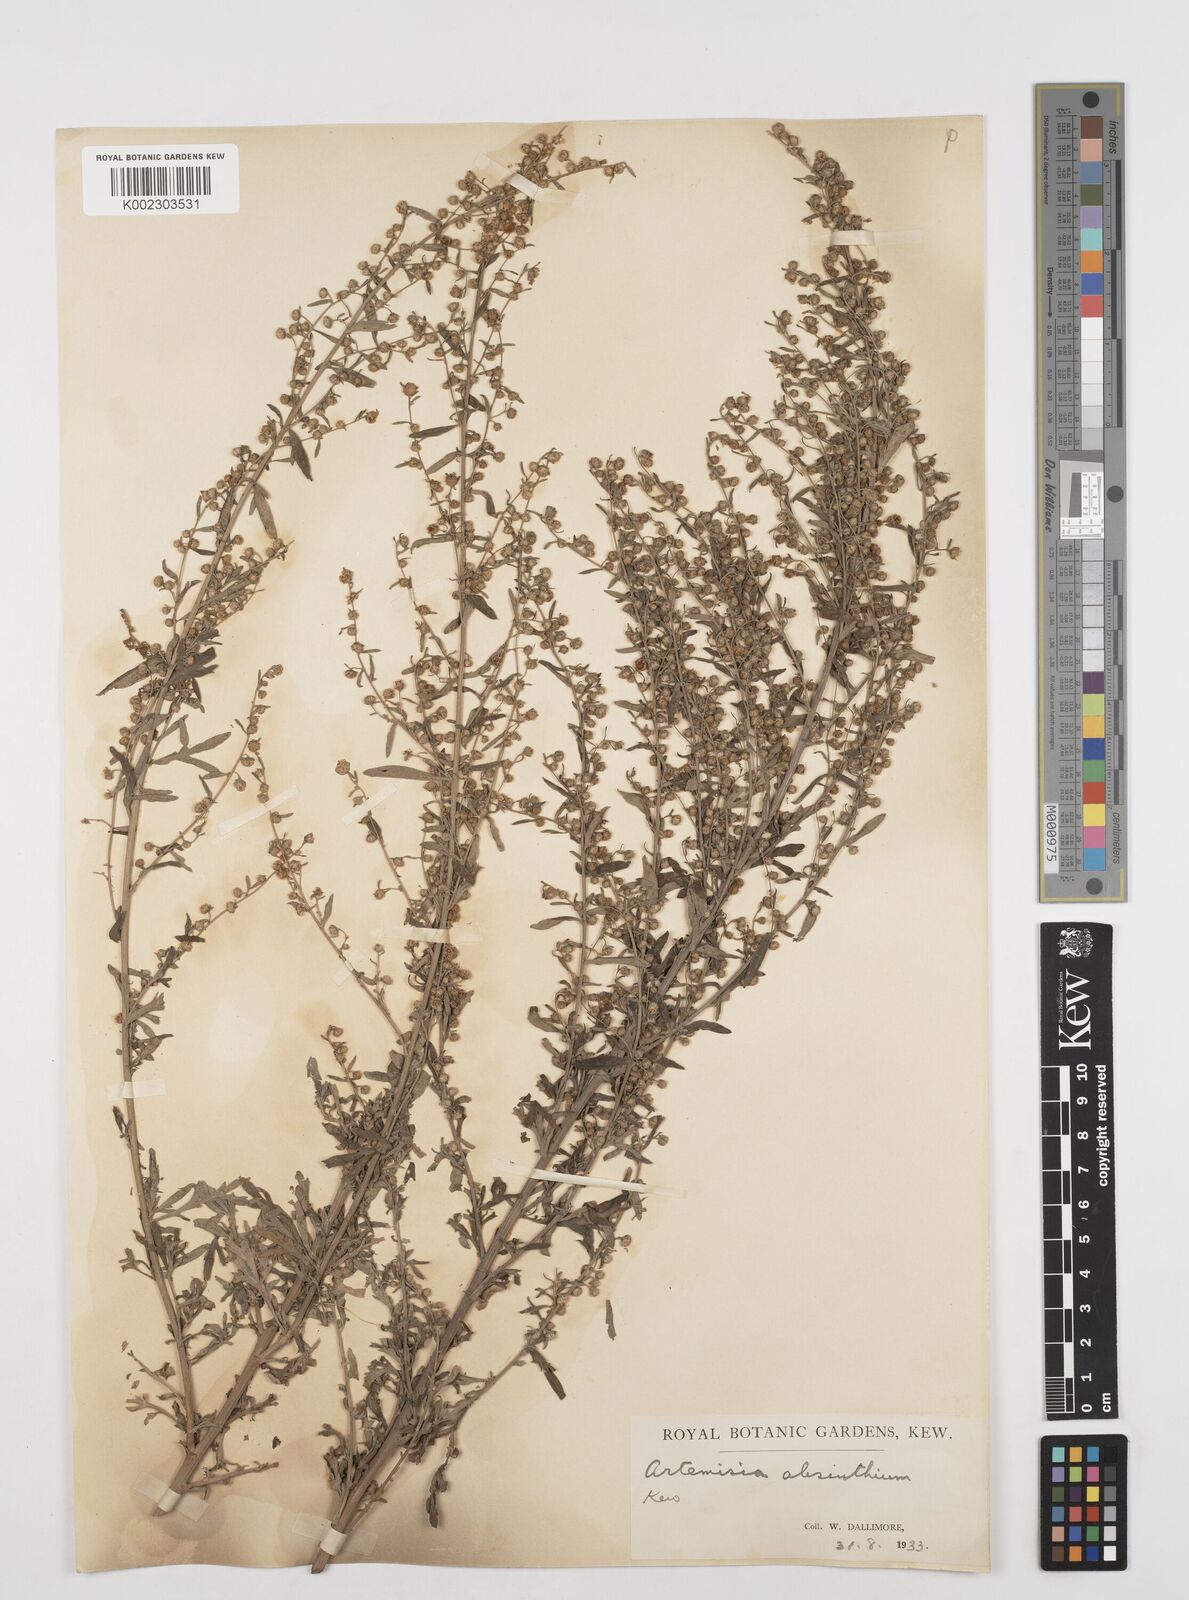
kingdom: Plantae
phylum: Tracheophyta
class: Magnoliopsida
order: Asterales
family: Asteraceae
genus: Artemisia
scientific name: Artemisia absinthium
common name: Wormwood
